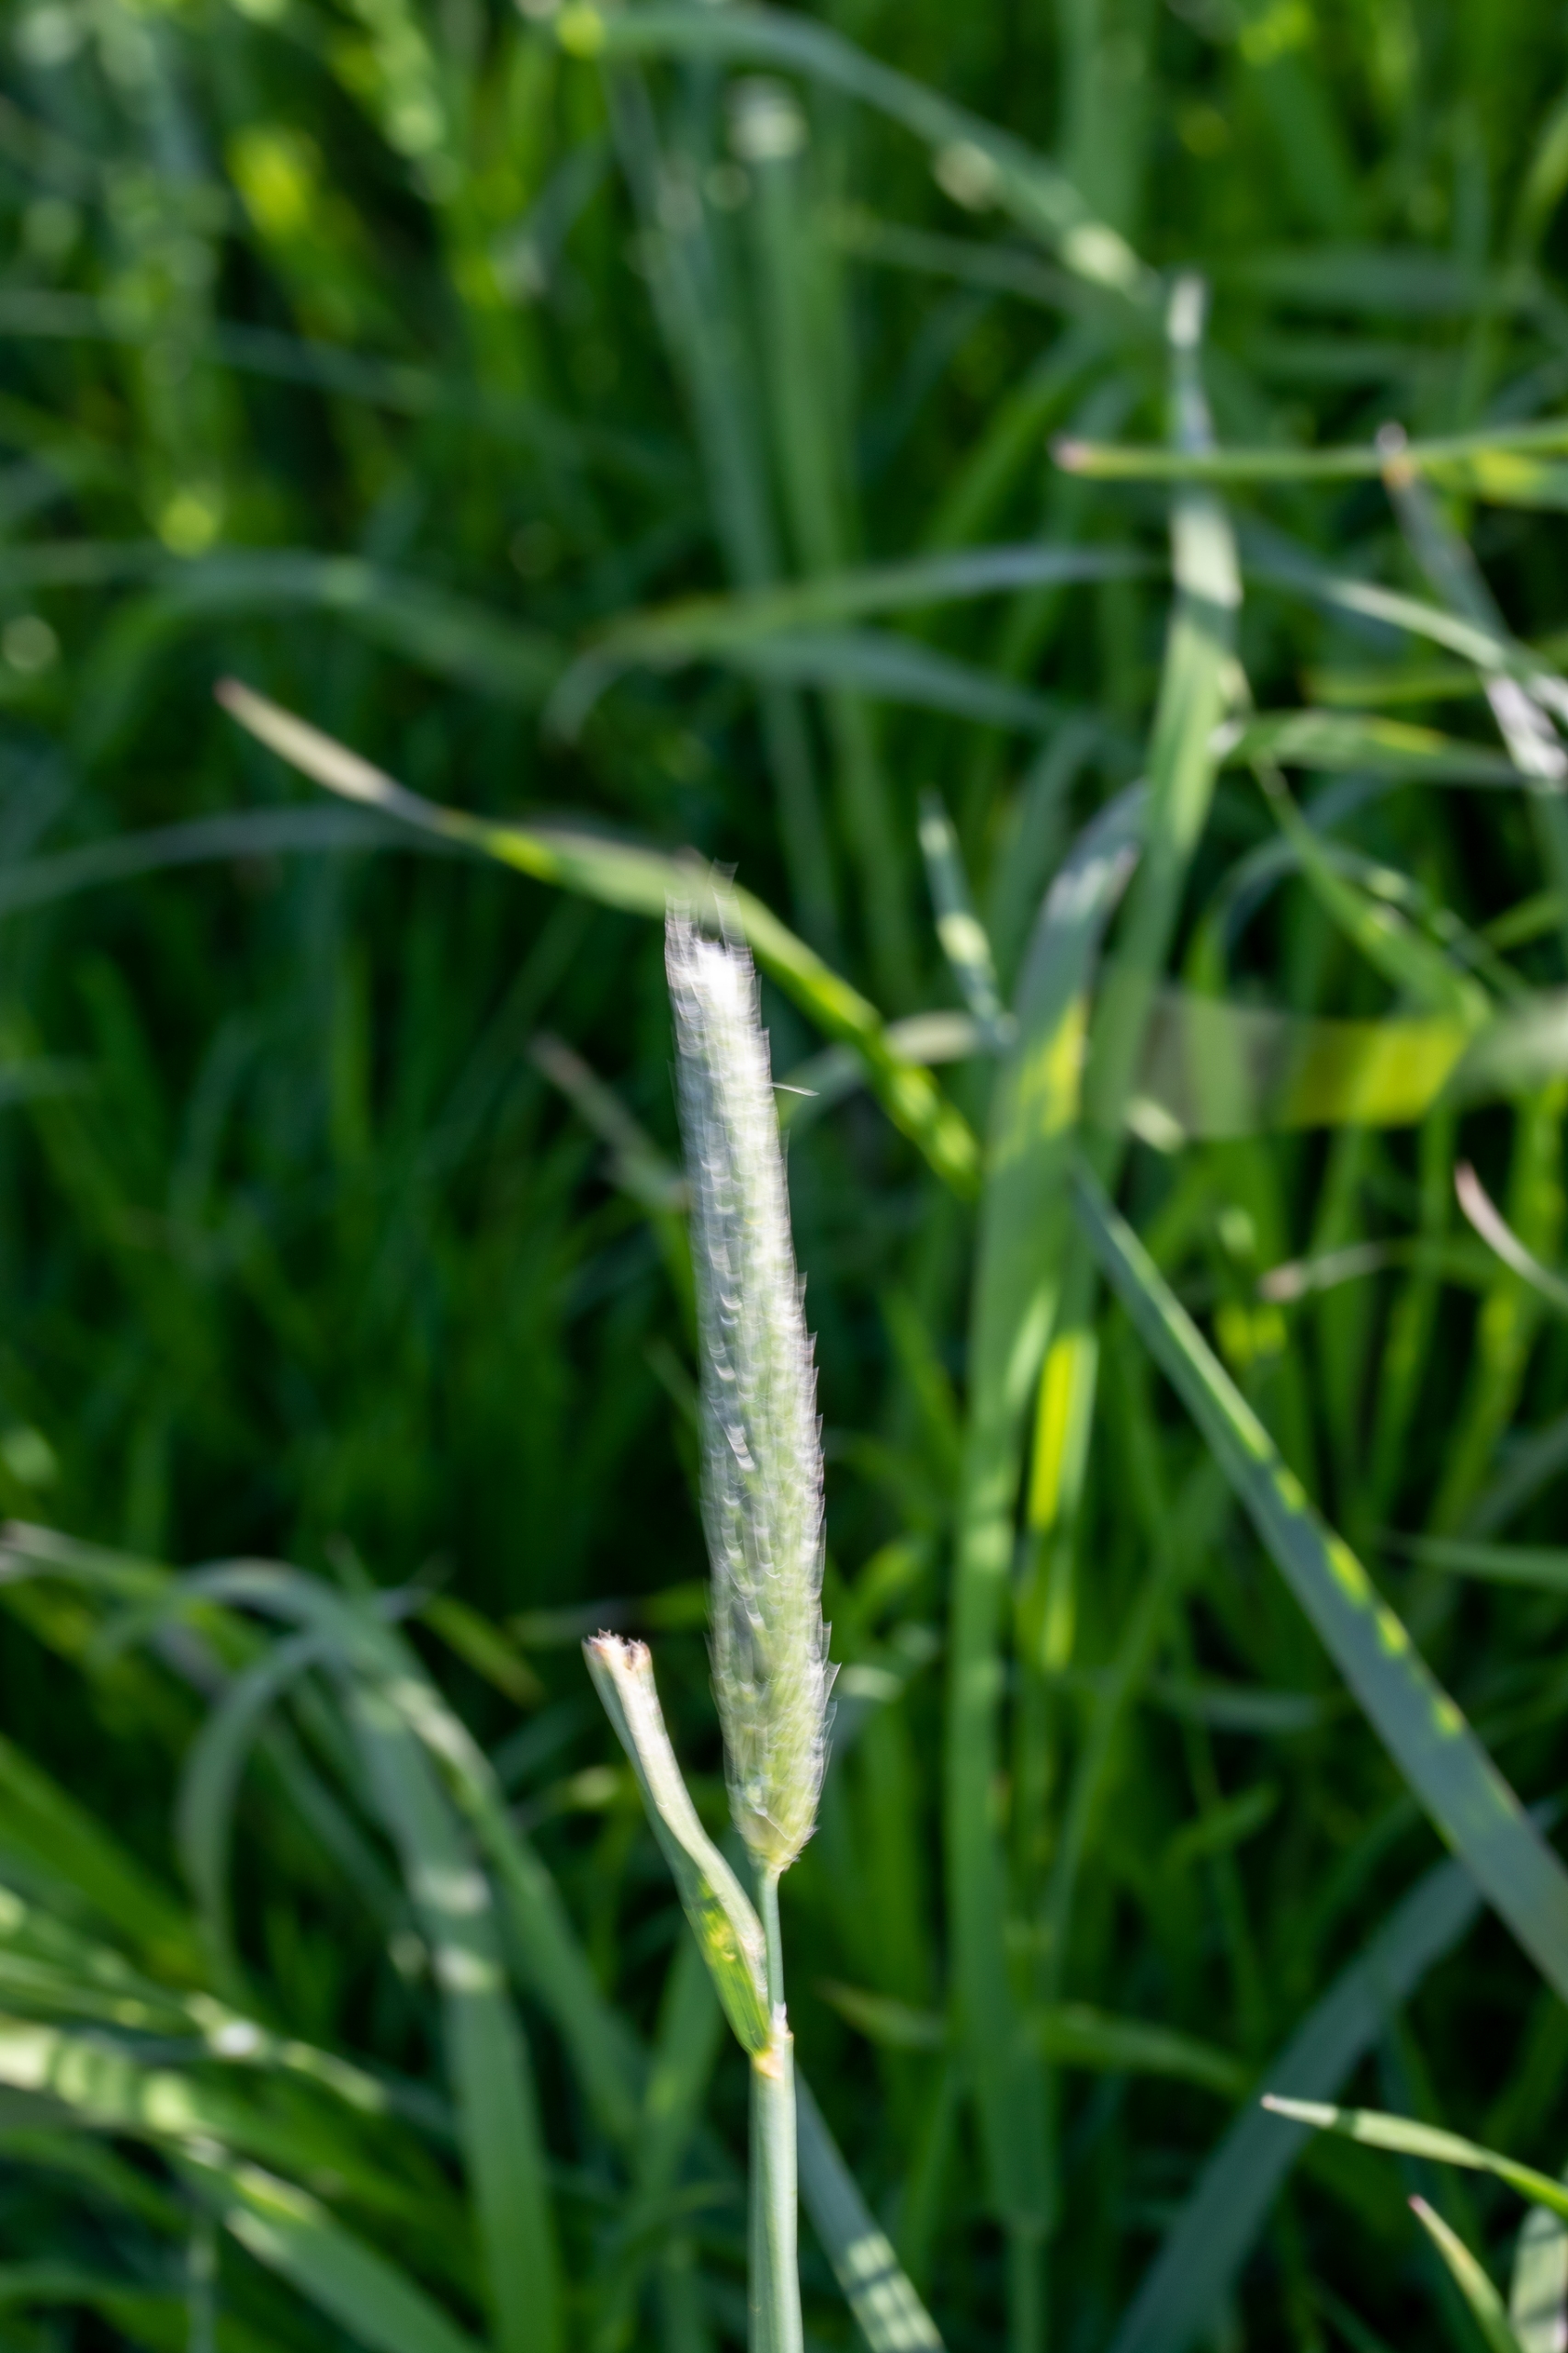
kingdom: Plantae
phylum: Tracheophyta
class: Liliopsida
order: Poales
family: Poaceae
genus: Phleum
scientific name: Phleum pratense
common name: Eng-rottehale
